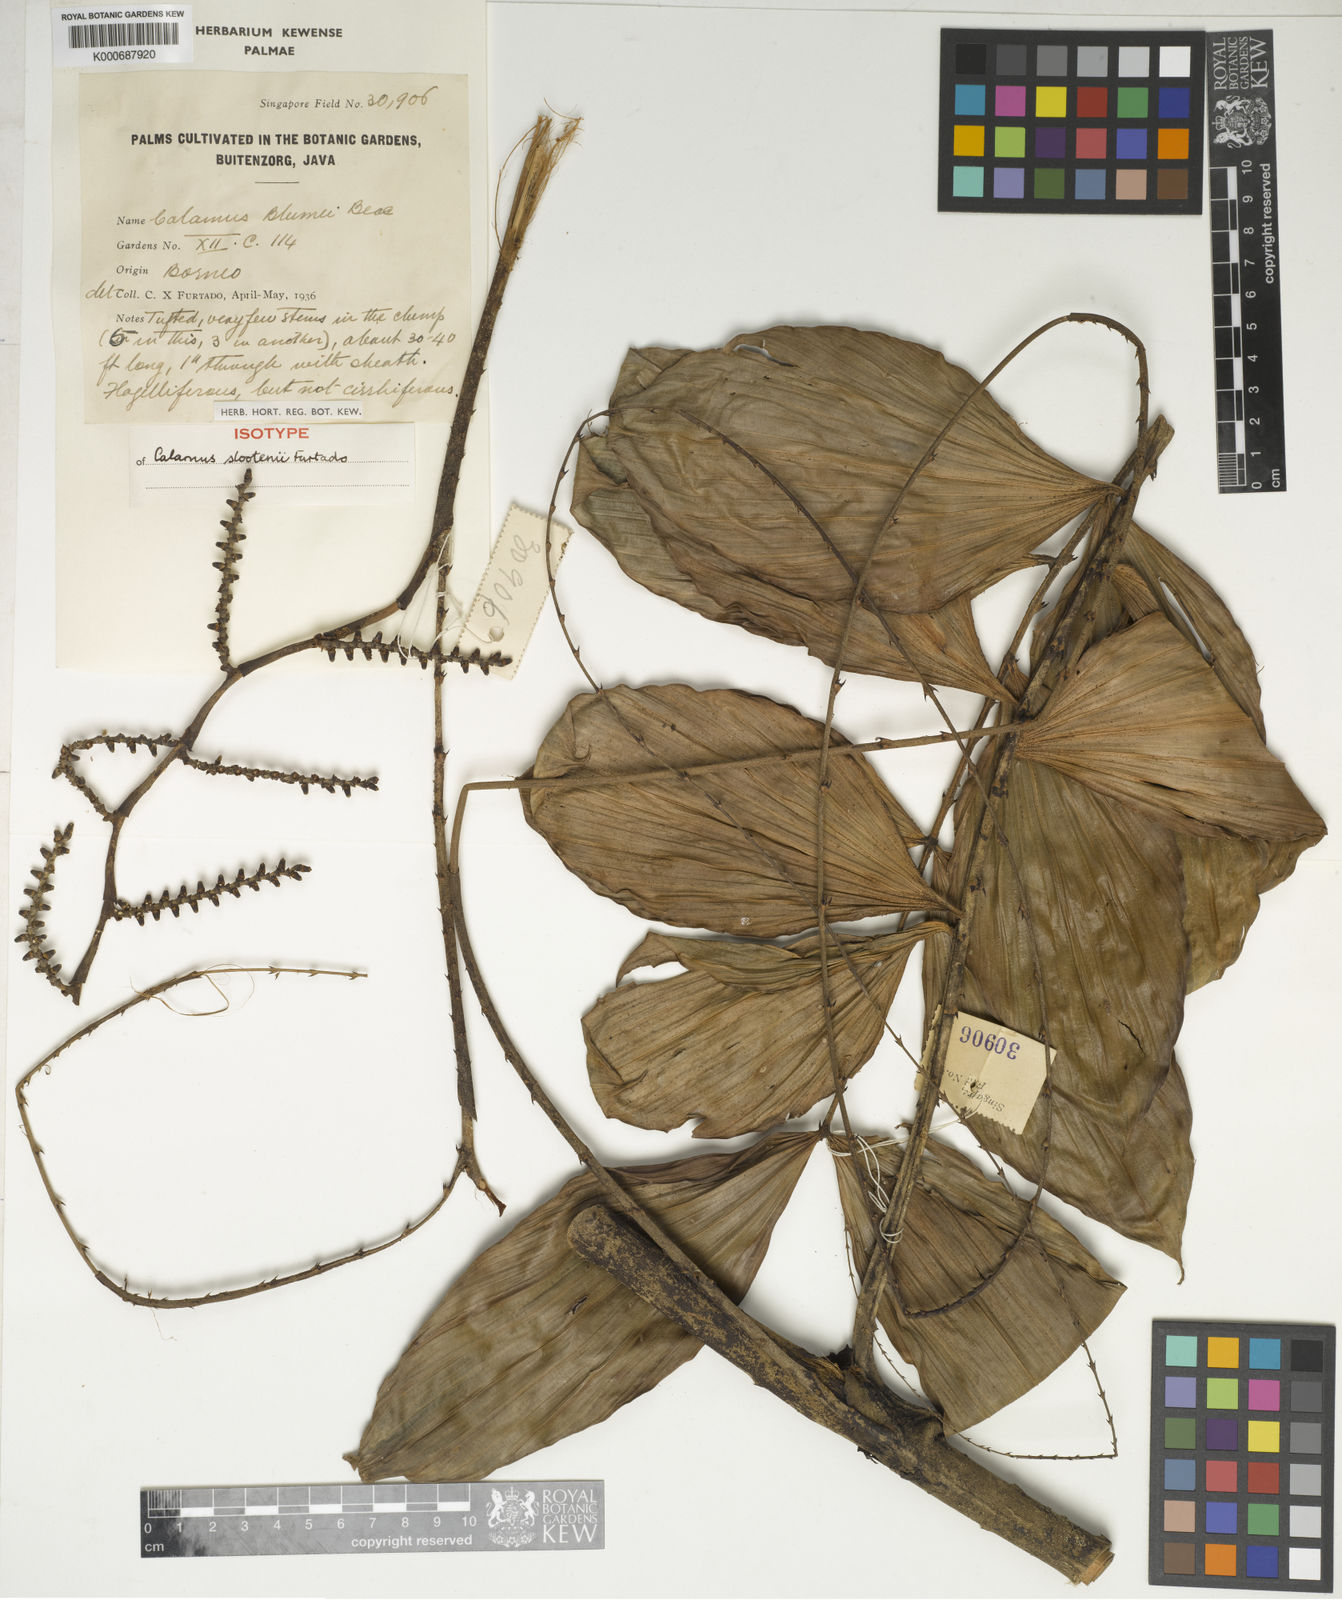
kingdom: Plantae
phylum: Tracheophyta
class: Liliopsida
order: Arecales
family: Arecaceae
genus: Calamus
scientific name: Calamus rhomboideus
